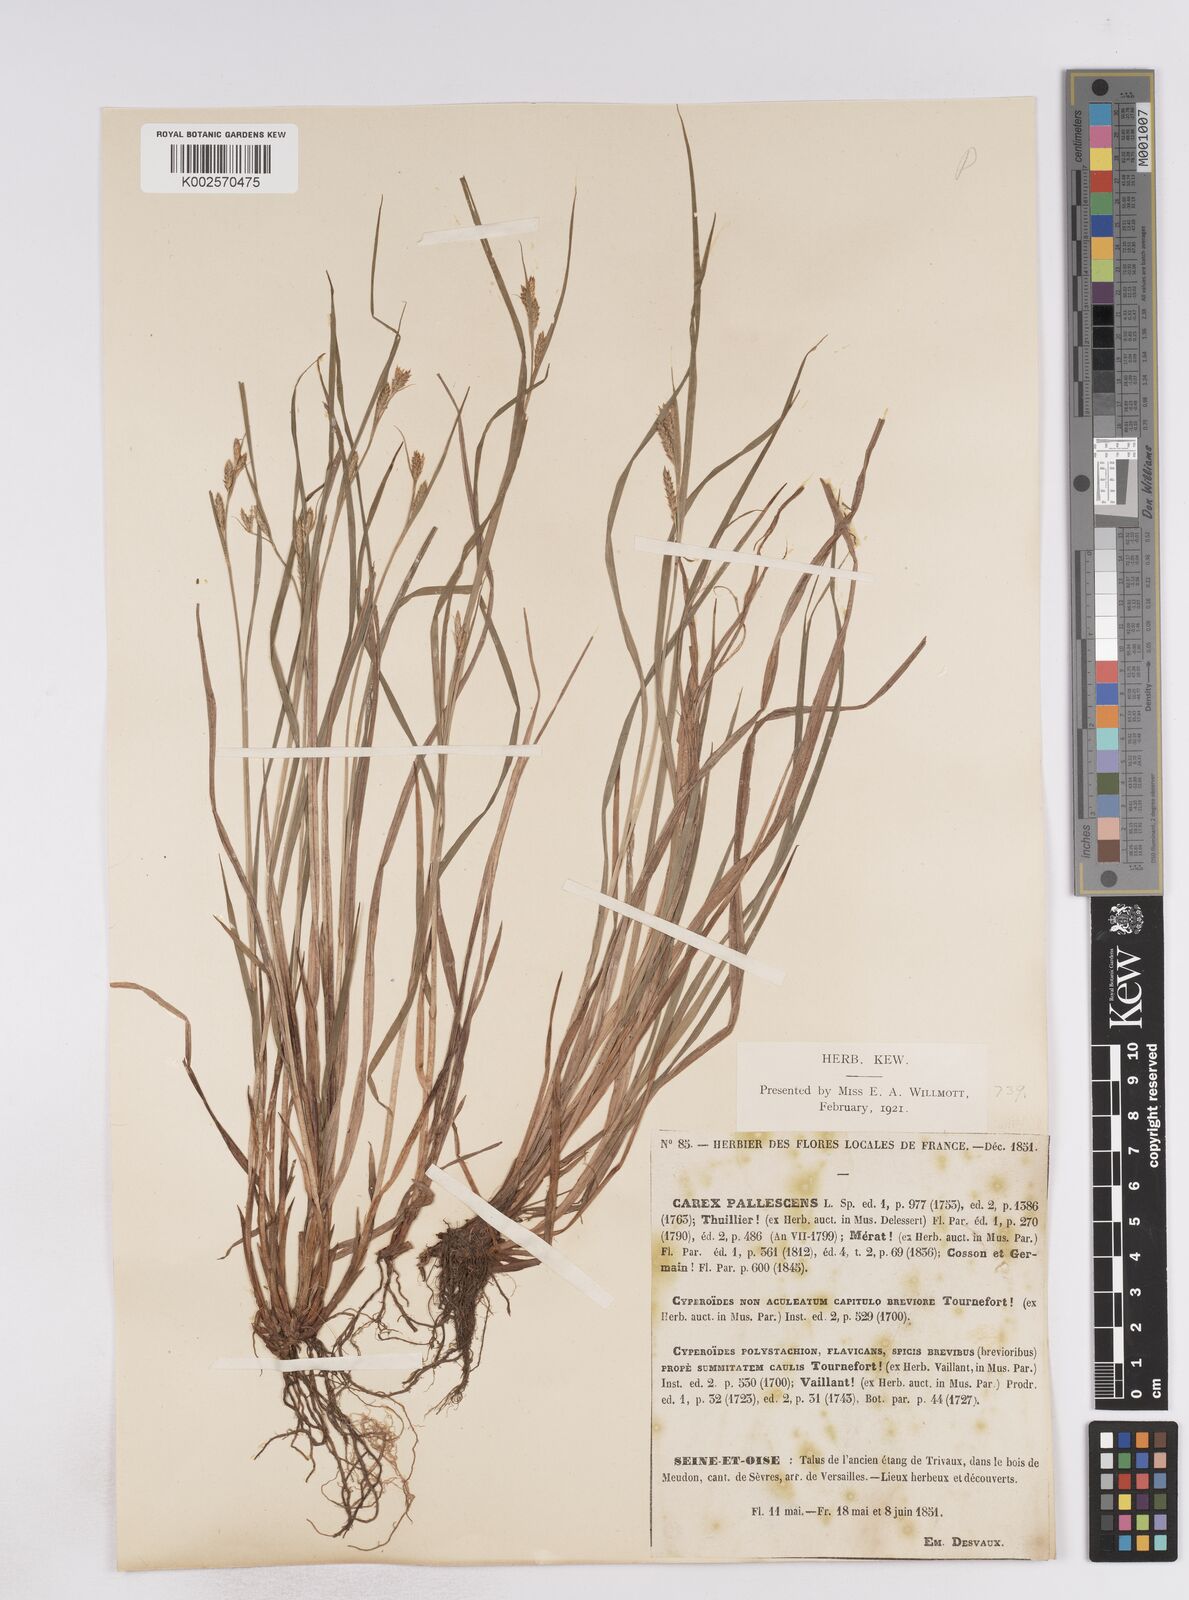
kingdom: Plantae
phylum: Tracheophyta
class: Liliopsida
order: Poales
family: Cyperaceae
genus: Carex
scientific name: Carex pallescens
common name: Pale sedge
